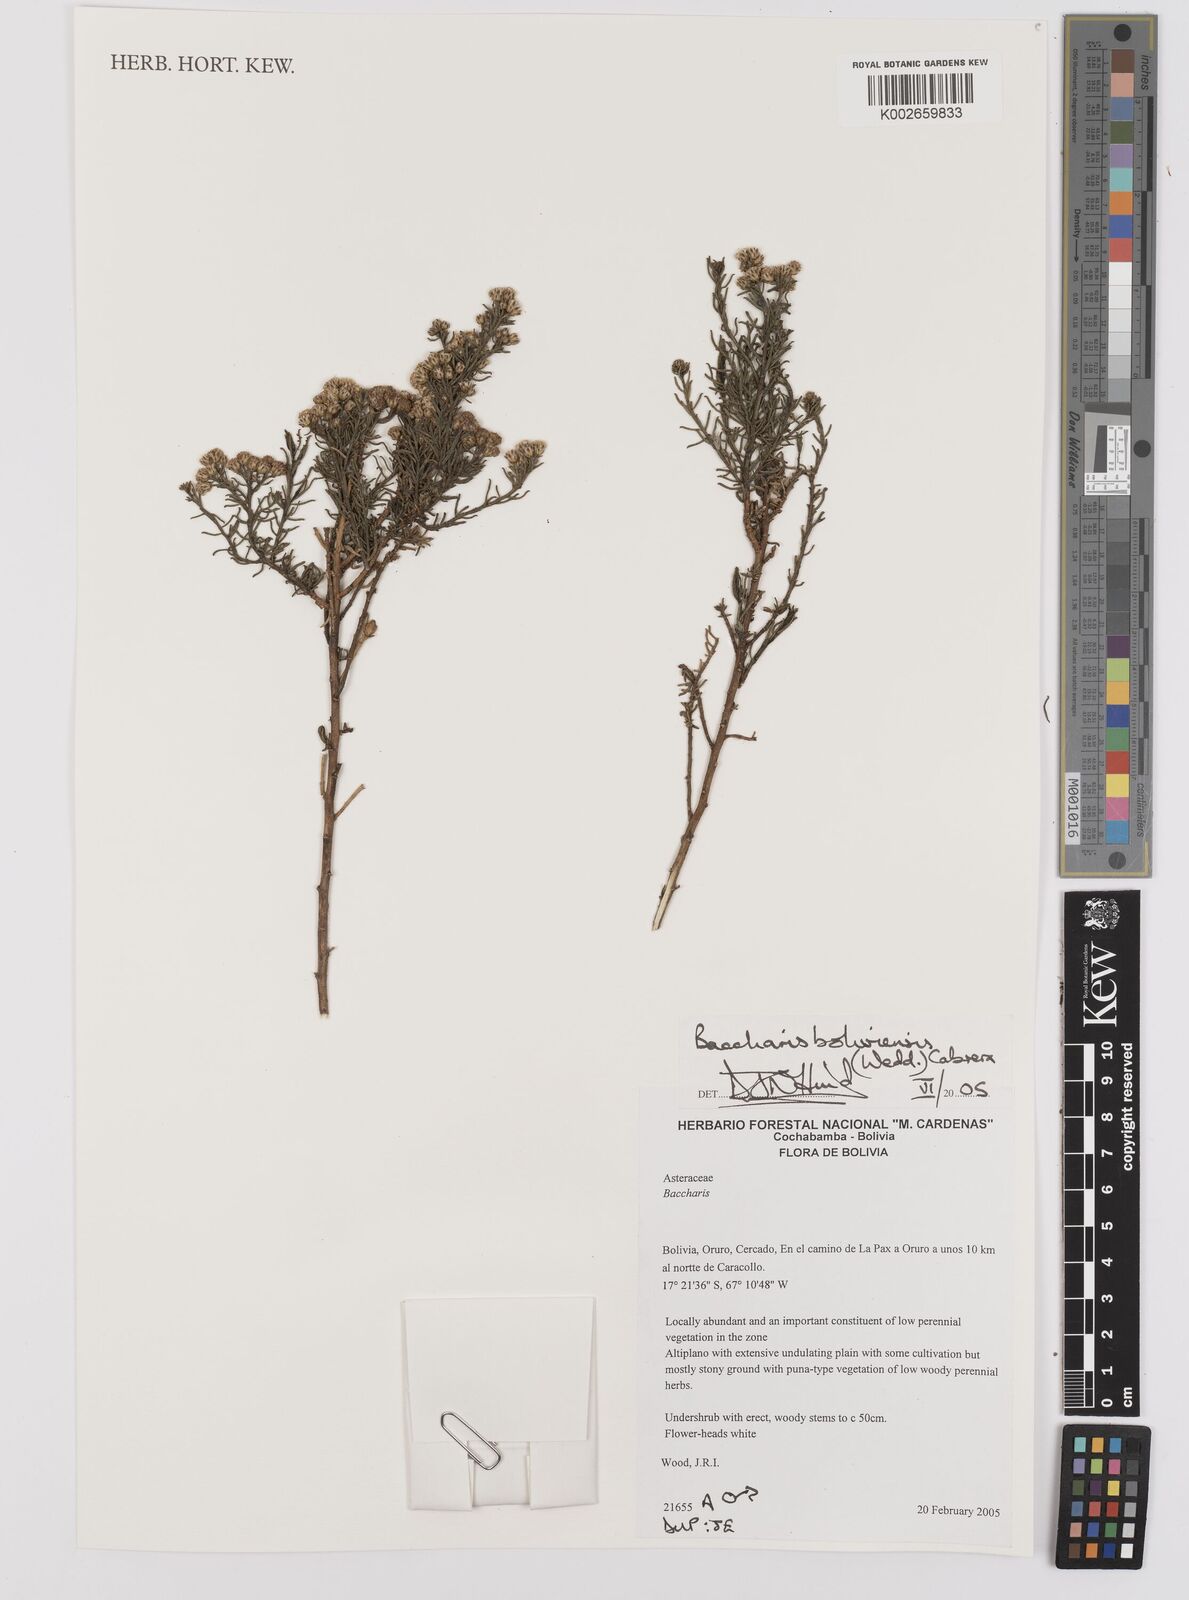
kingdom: Plantae
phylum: Tracheophyta
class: Magnoliopsida
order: Asterales
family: Asteraceae
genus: Baccharis
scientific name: Baccharis bolivensis
